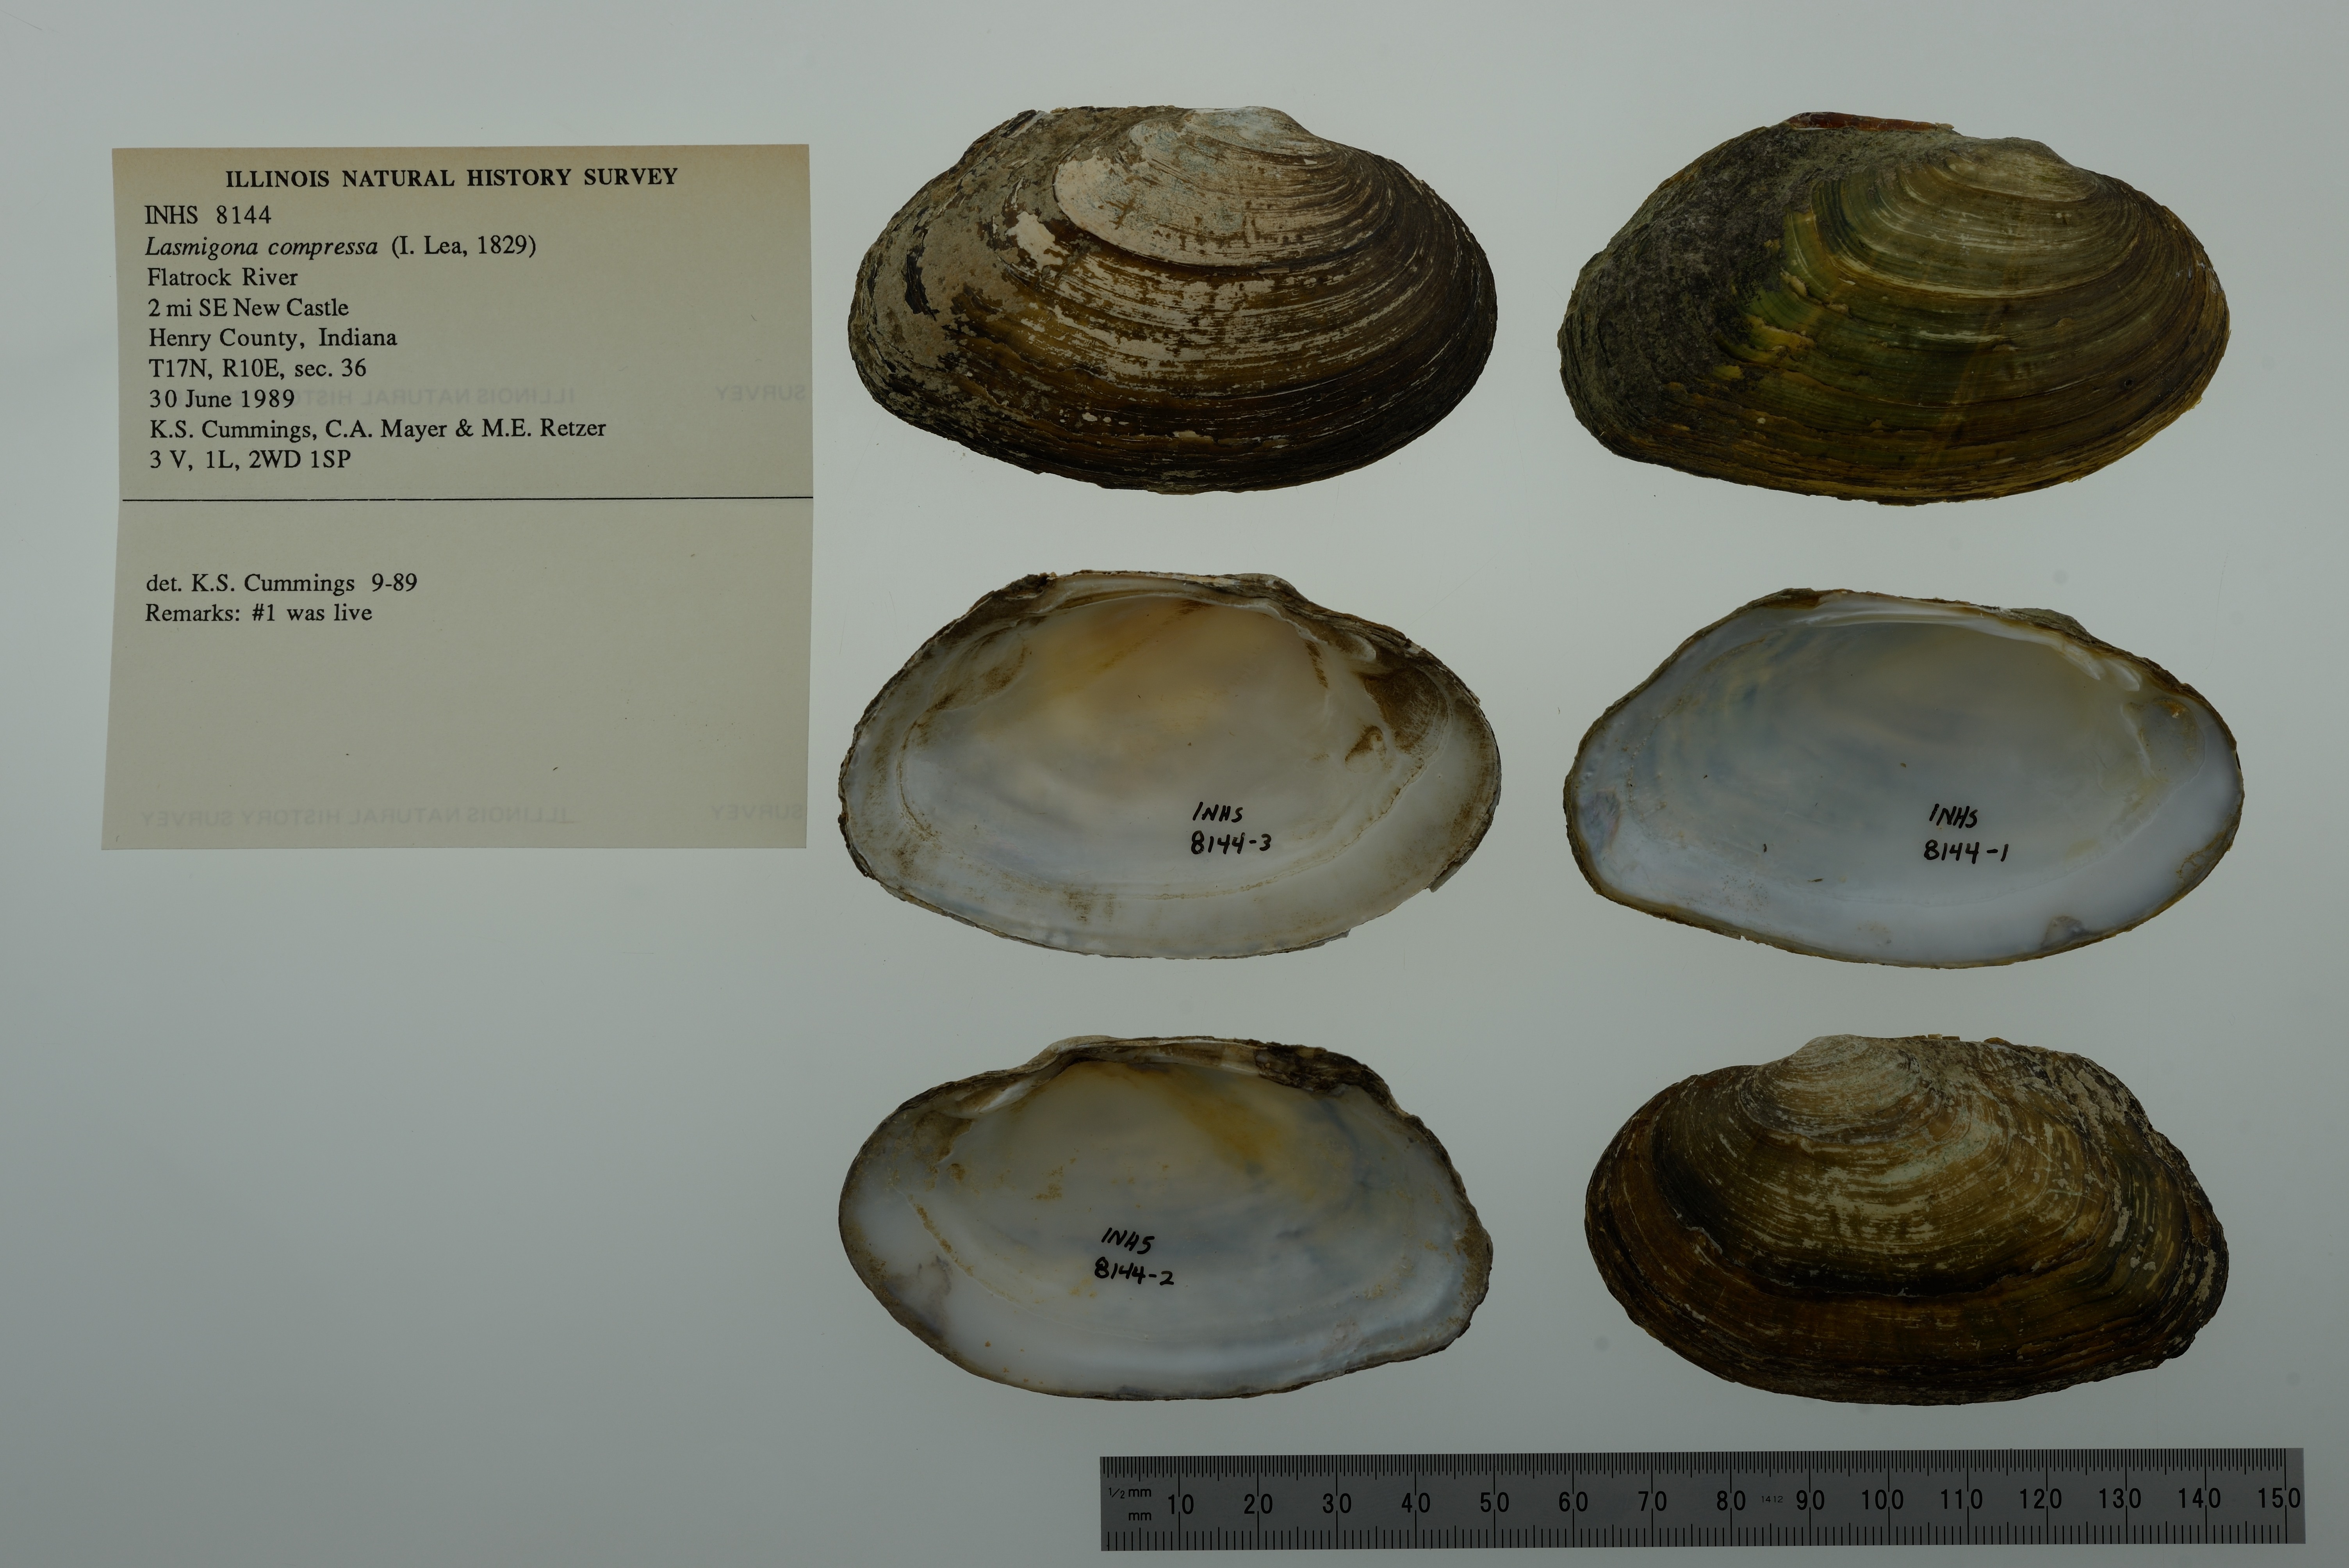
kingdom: Animalia
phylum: Mollusca
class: Bivalvia
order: Unionida
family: Unionidae
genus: Lasmigona
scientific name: Lasmigona compressa
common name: Creek heelsplitter
